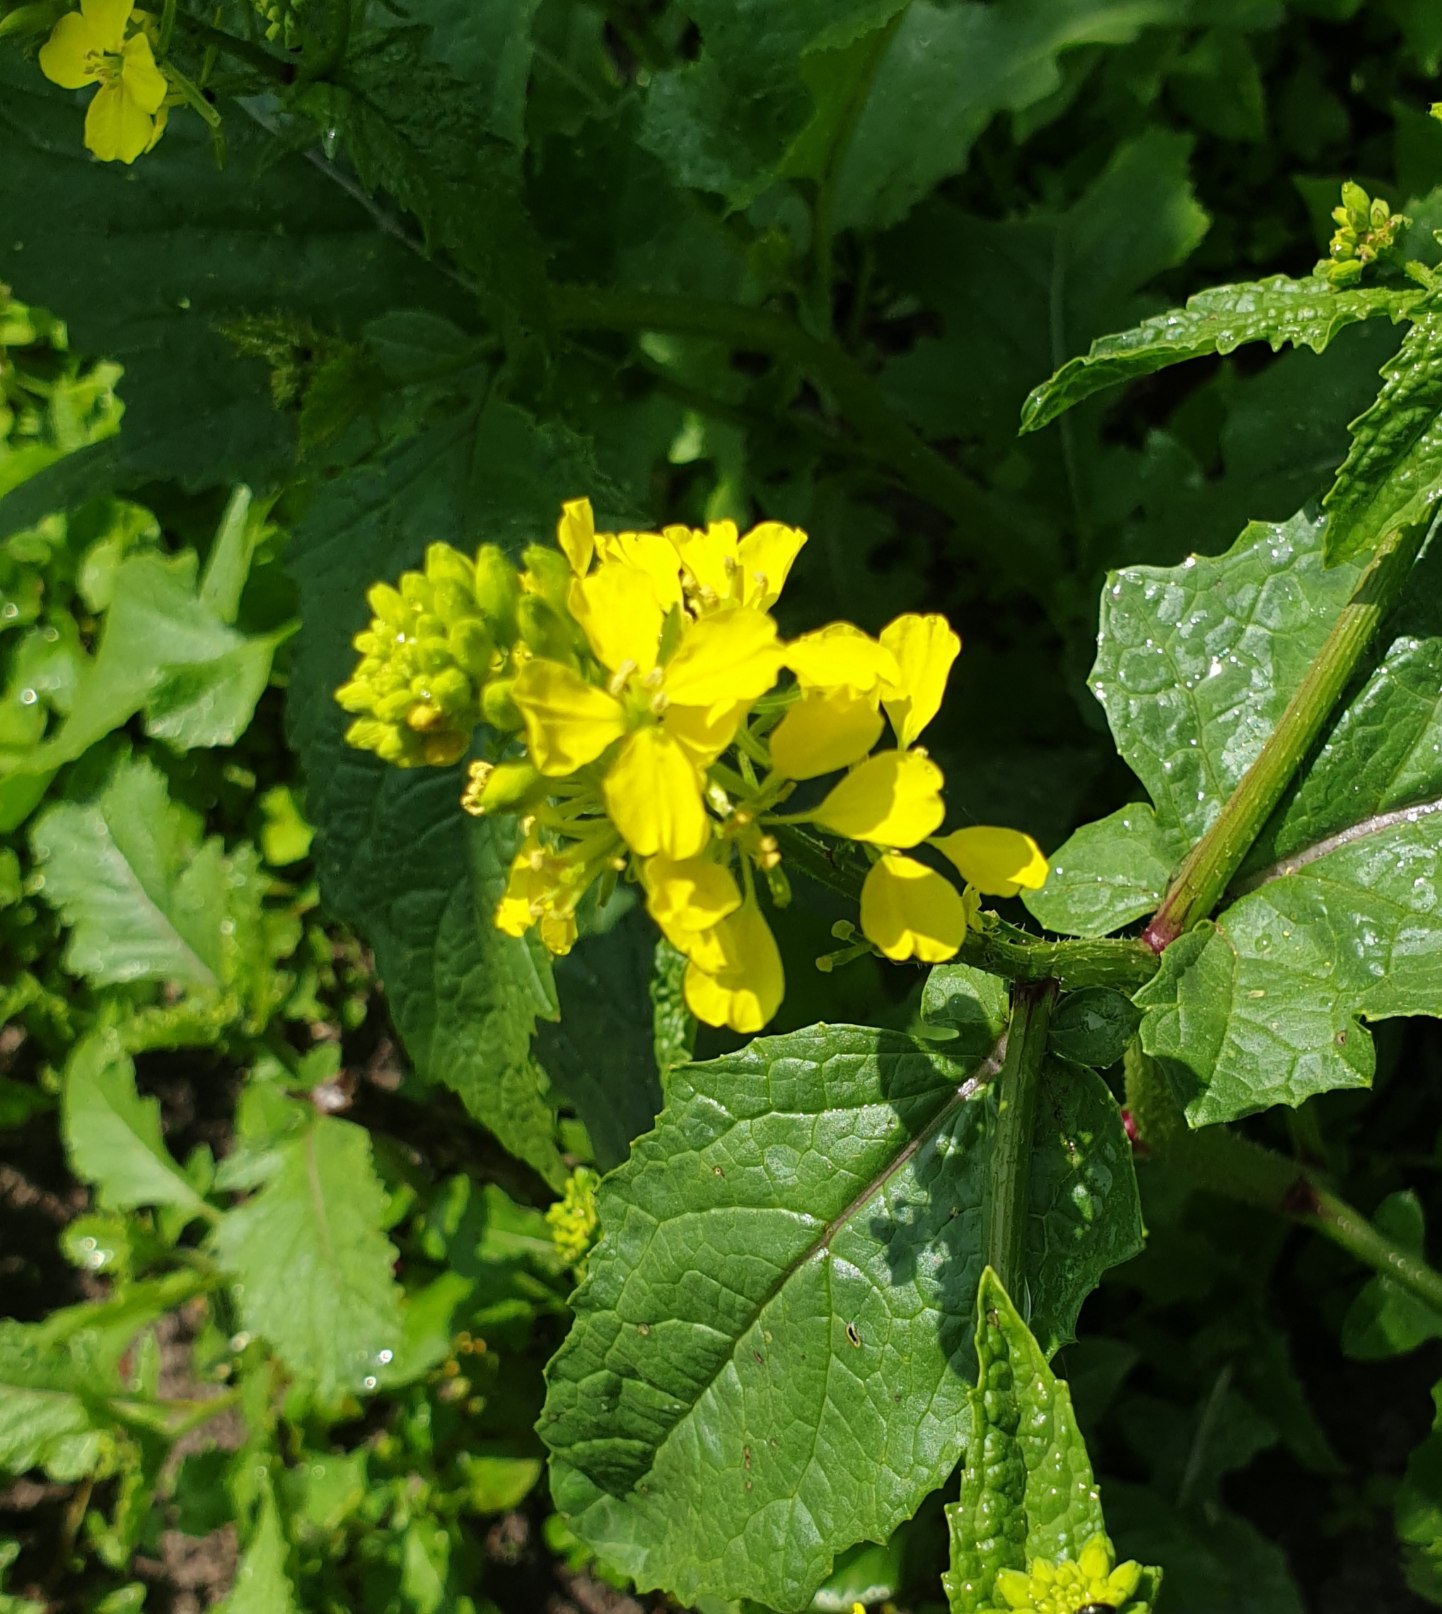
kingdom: Plantae
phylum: Tracheophyta
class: Magnoliopsida
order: Brassicales
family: Brassicaceae
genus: Sinapis
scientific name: Sinapis arvensis
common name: Ager-sennep
